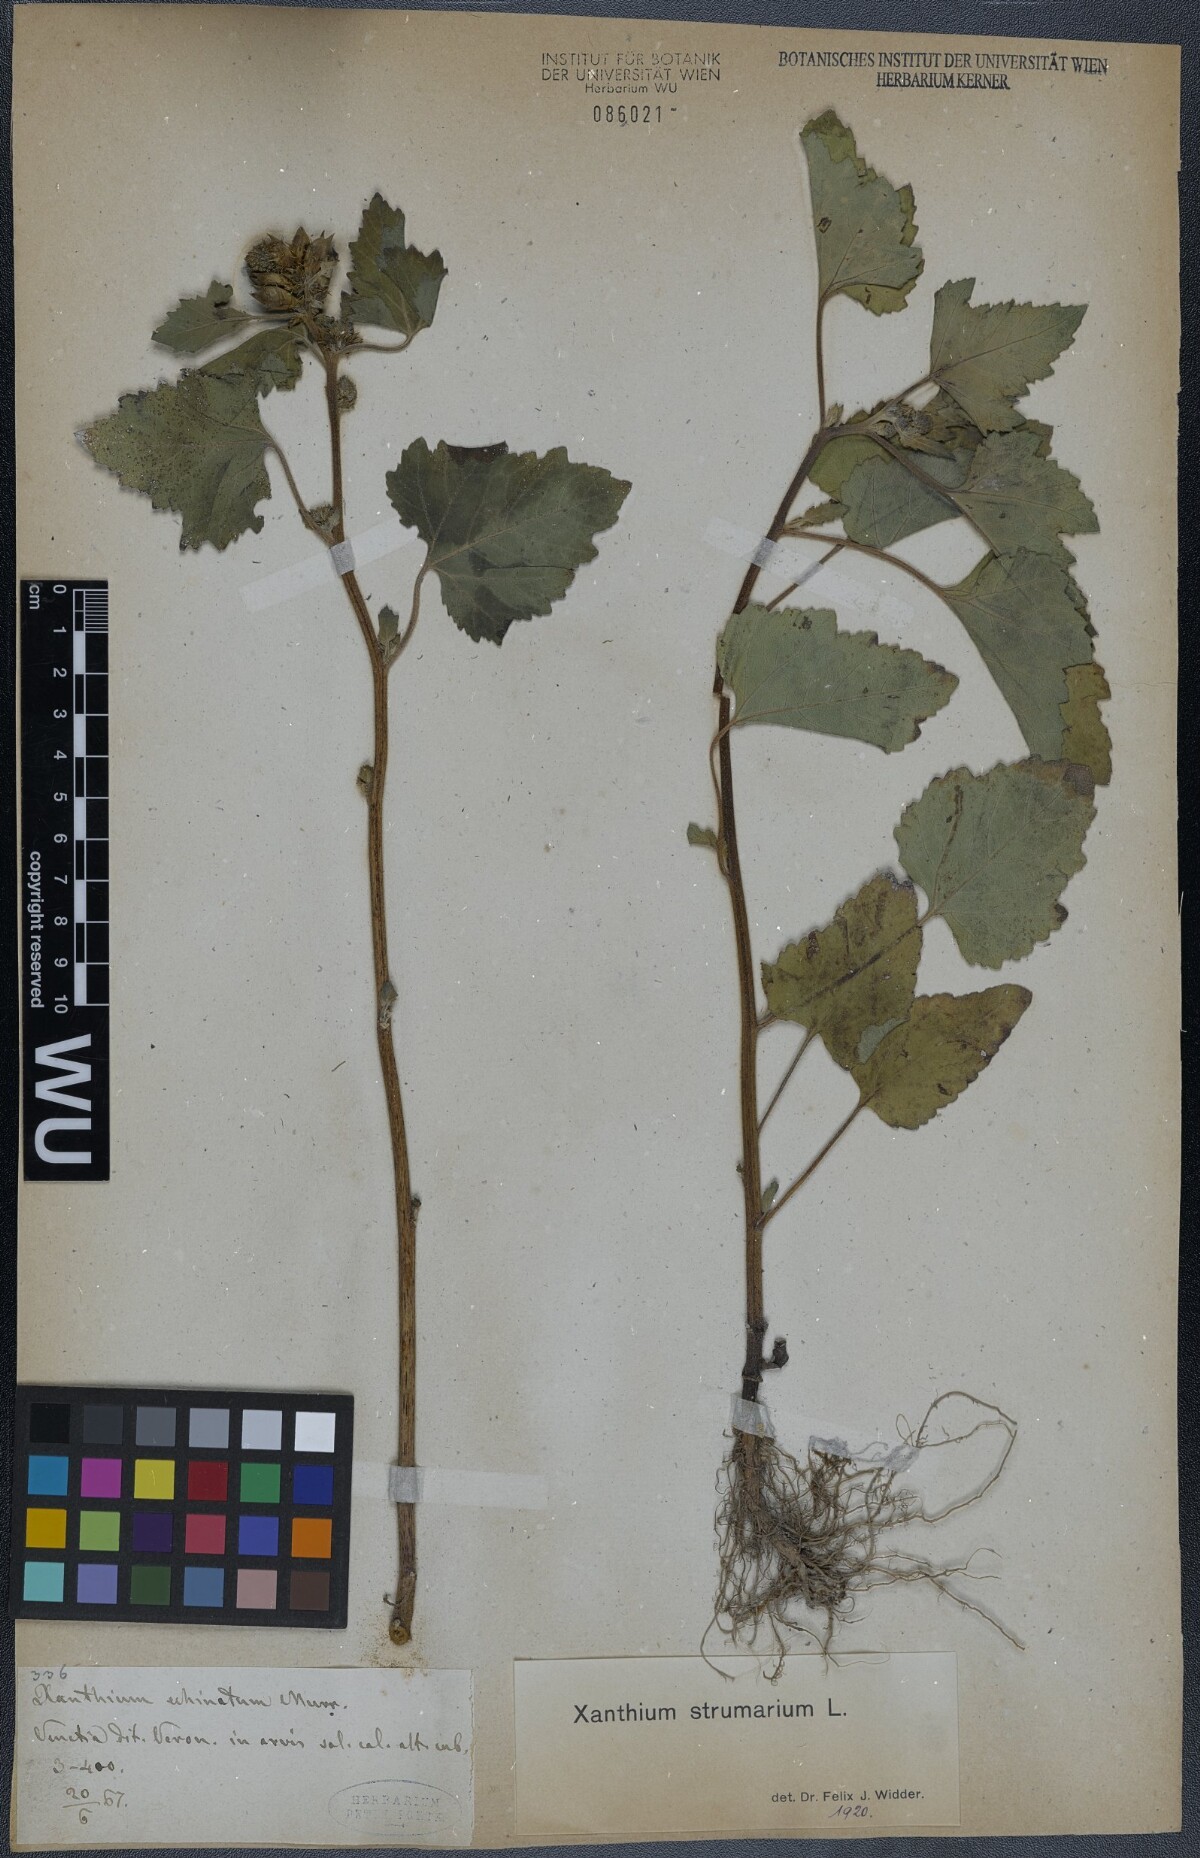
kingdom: Plantae
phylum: Tracheophyta
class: Magnoliopsida
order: Asterales
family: Asteraceae
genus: Xanthium
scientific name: Xanthium strumarium
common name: Rough cocklebur
